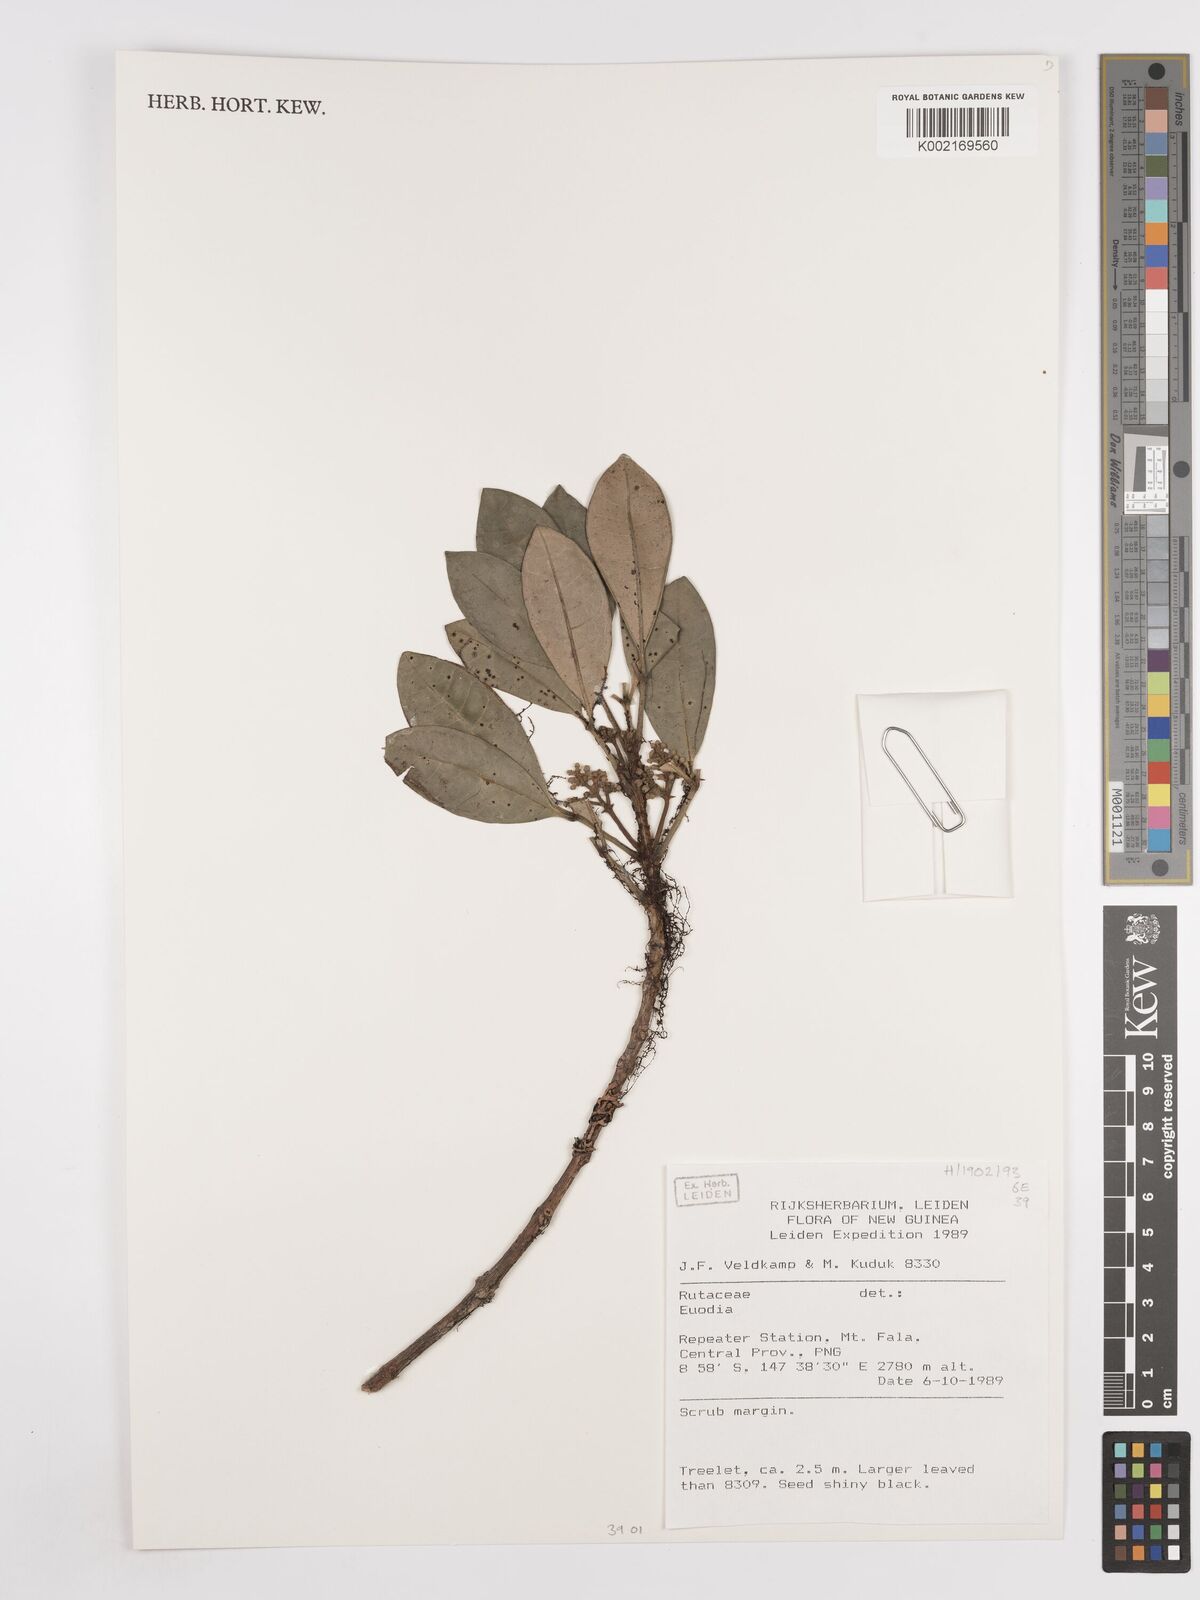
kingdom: Plantae
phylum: Tracheophyta
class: Magnoliopsida
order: Sapindales
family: Rutaceae
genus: Euodia
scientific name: Euodia
